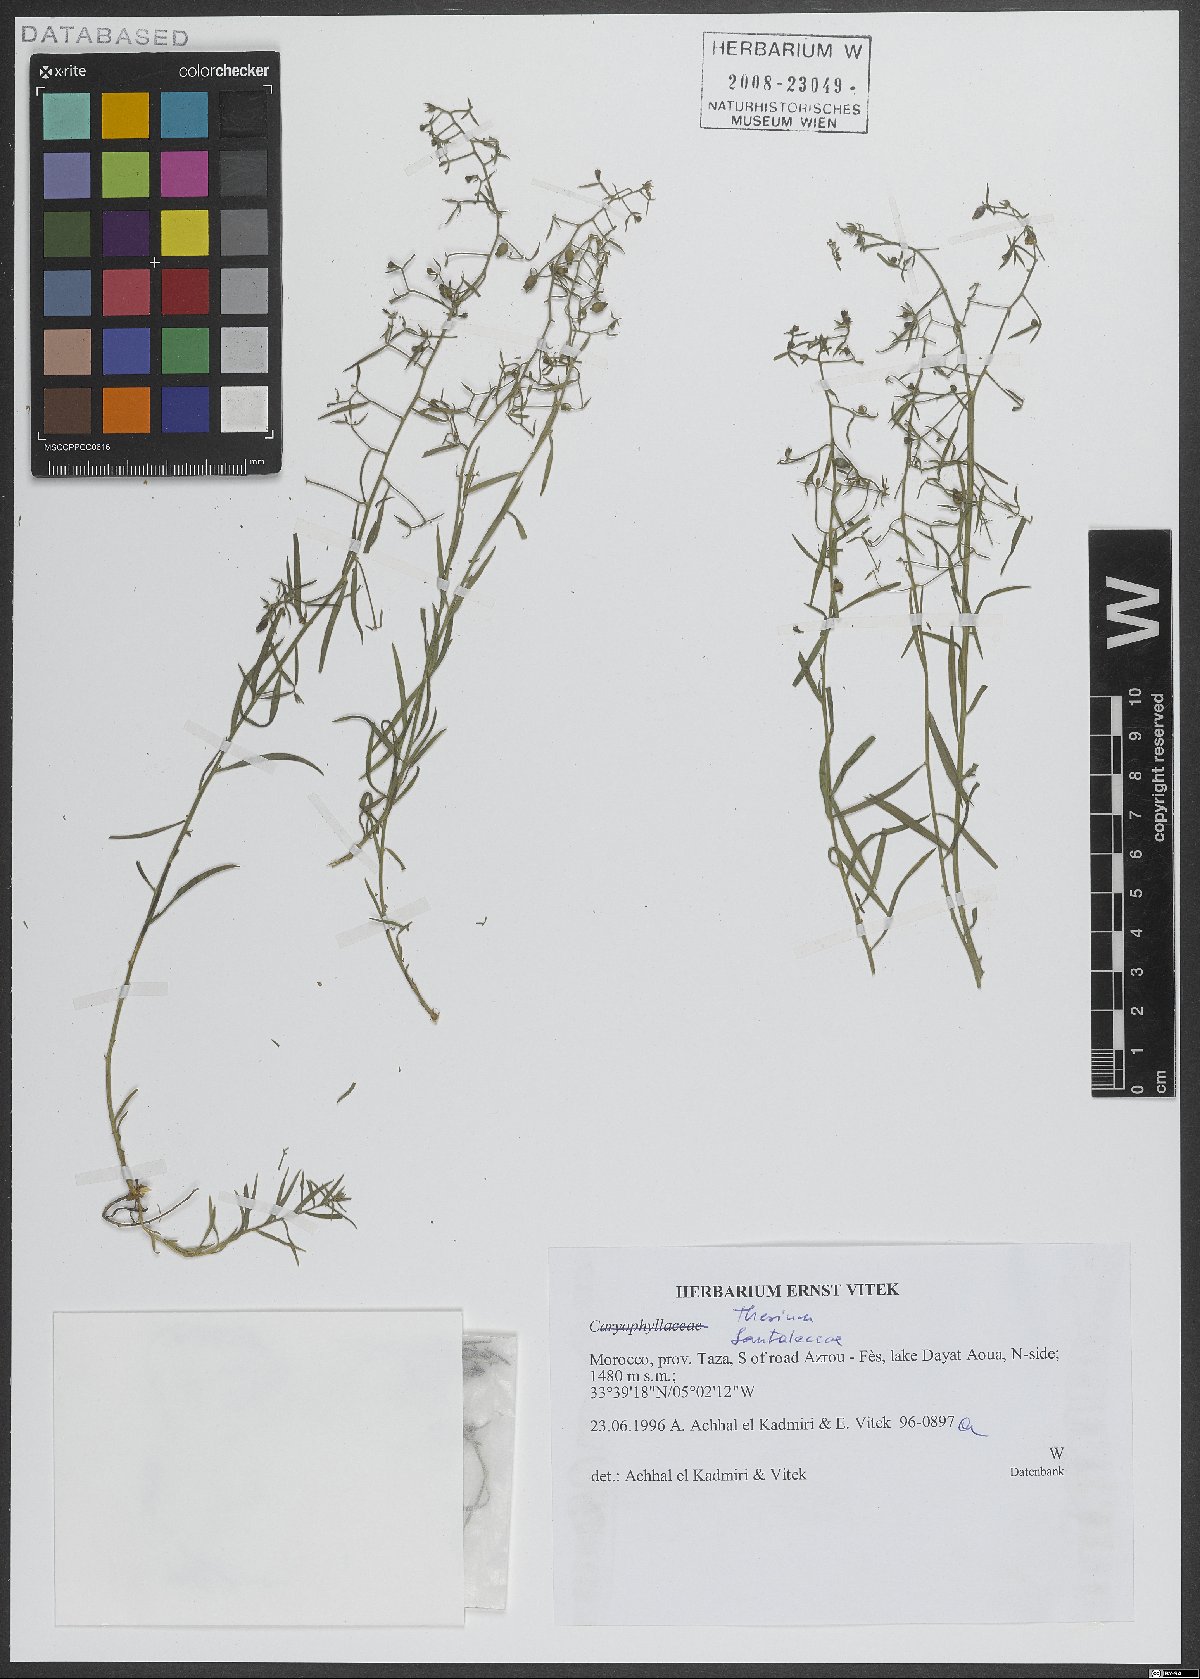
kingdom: Plantae
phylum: Tracheophyta
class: Magnoliopsida
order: Santalales
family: Thesiaceae
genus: Thesium
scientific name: Thesium
